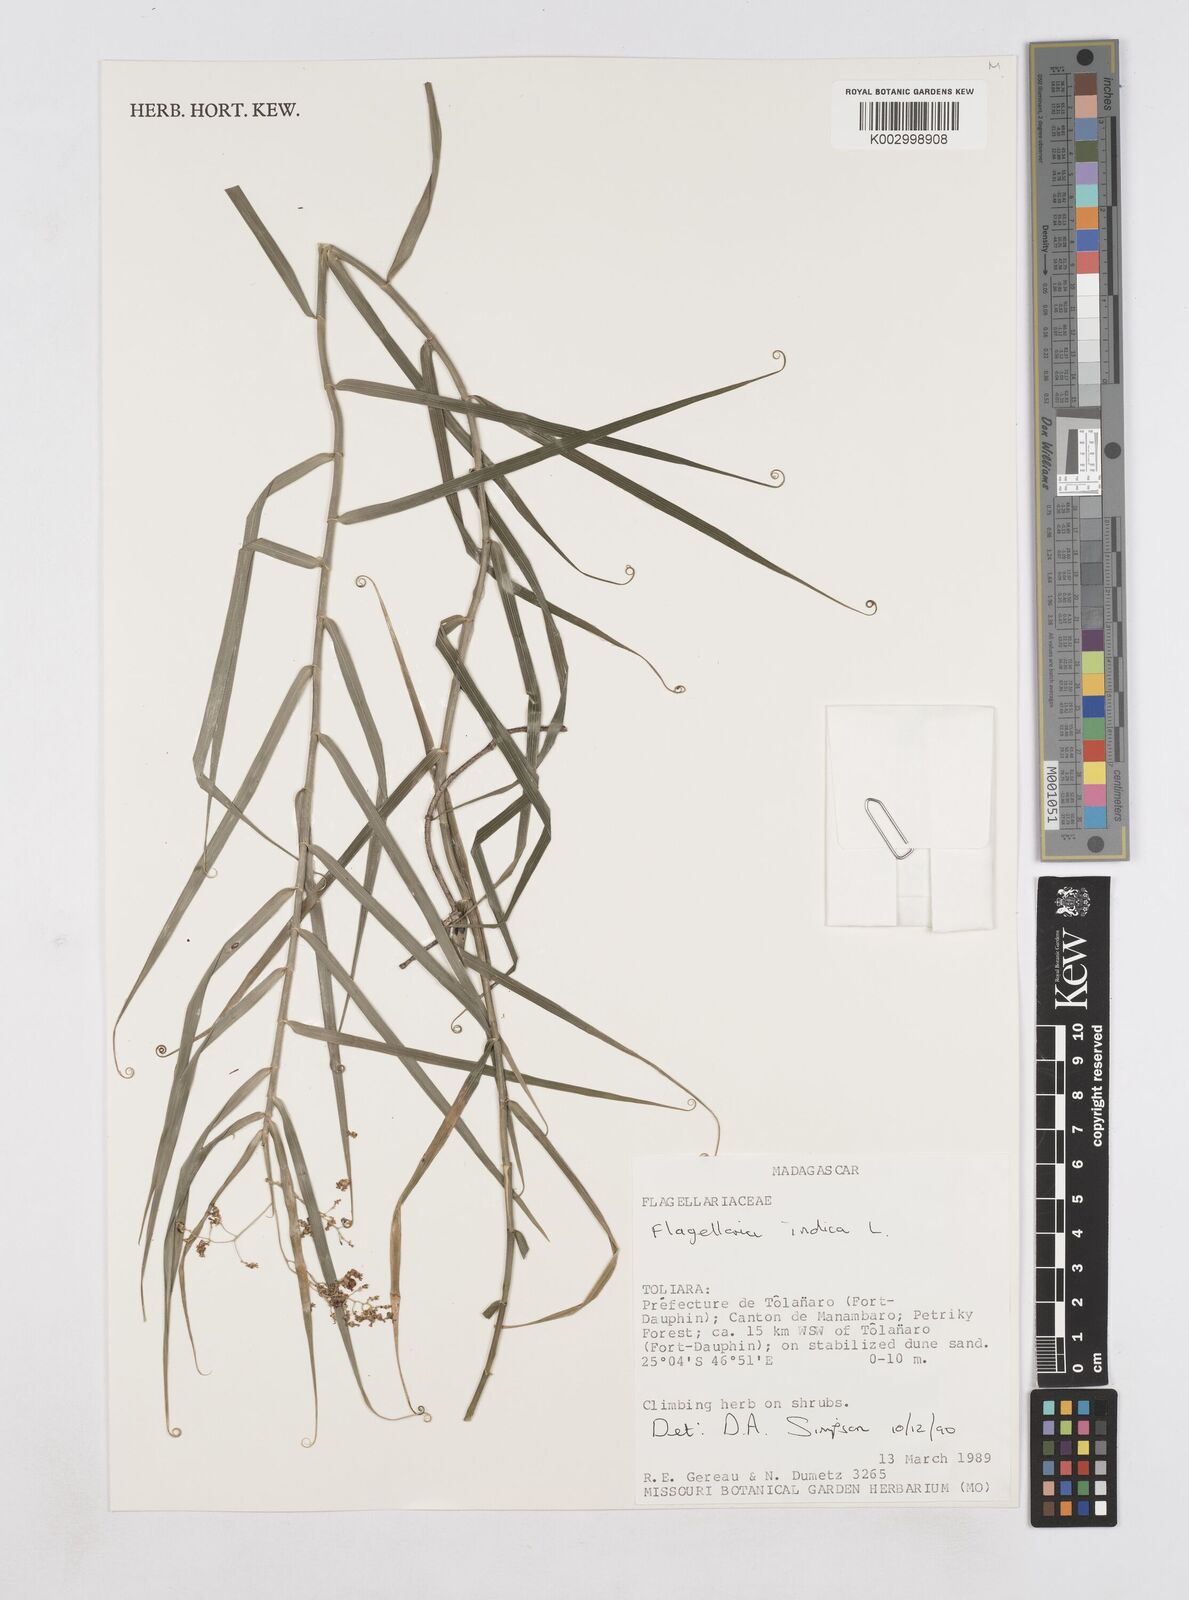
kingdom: Plantae
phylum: Tracheophyta
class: Liliopsida
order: Poales
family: Flagellariaceae
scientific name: Flagellariaceae
